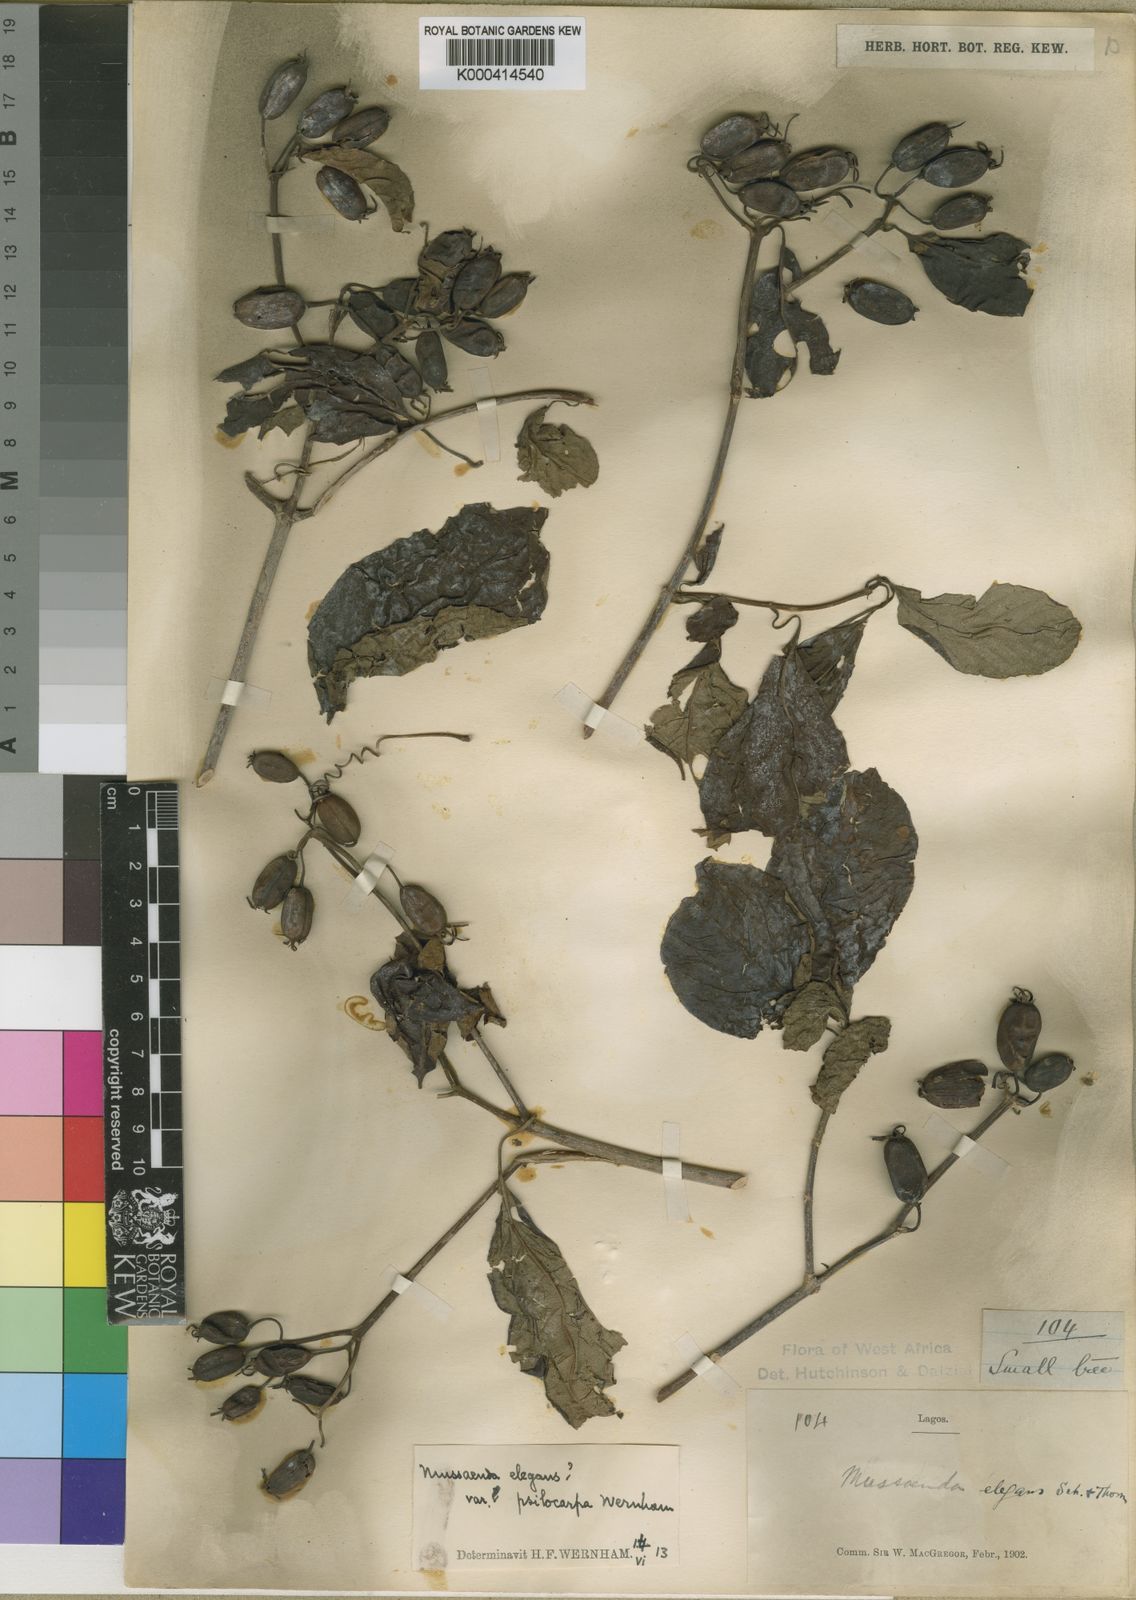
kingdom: Plantae
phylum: Tracheophyta
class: Magnoliopsida
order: Gentianales
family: Rubiaceae
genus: Mussaenda
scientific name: Mussaenda elegans
